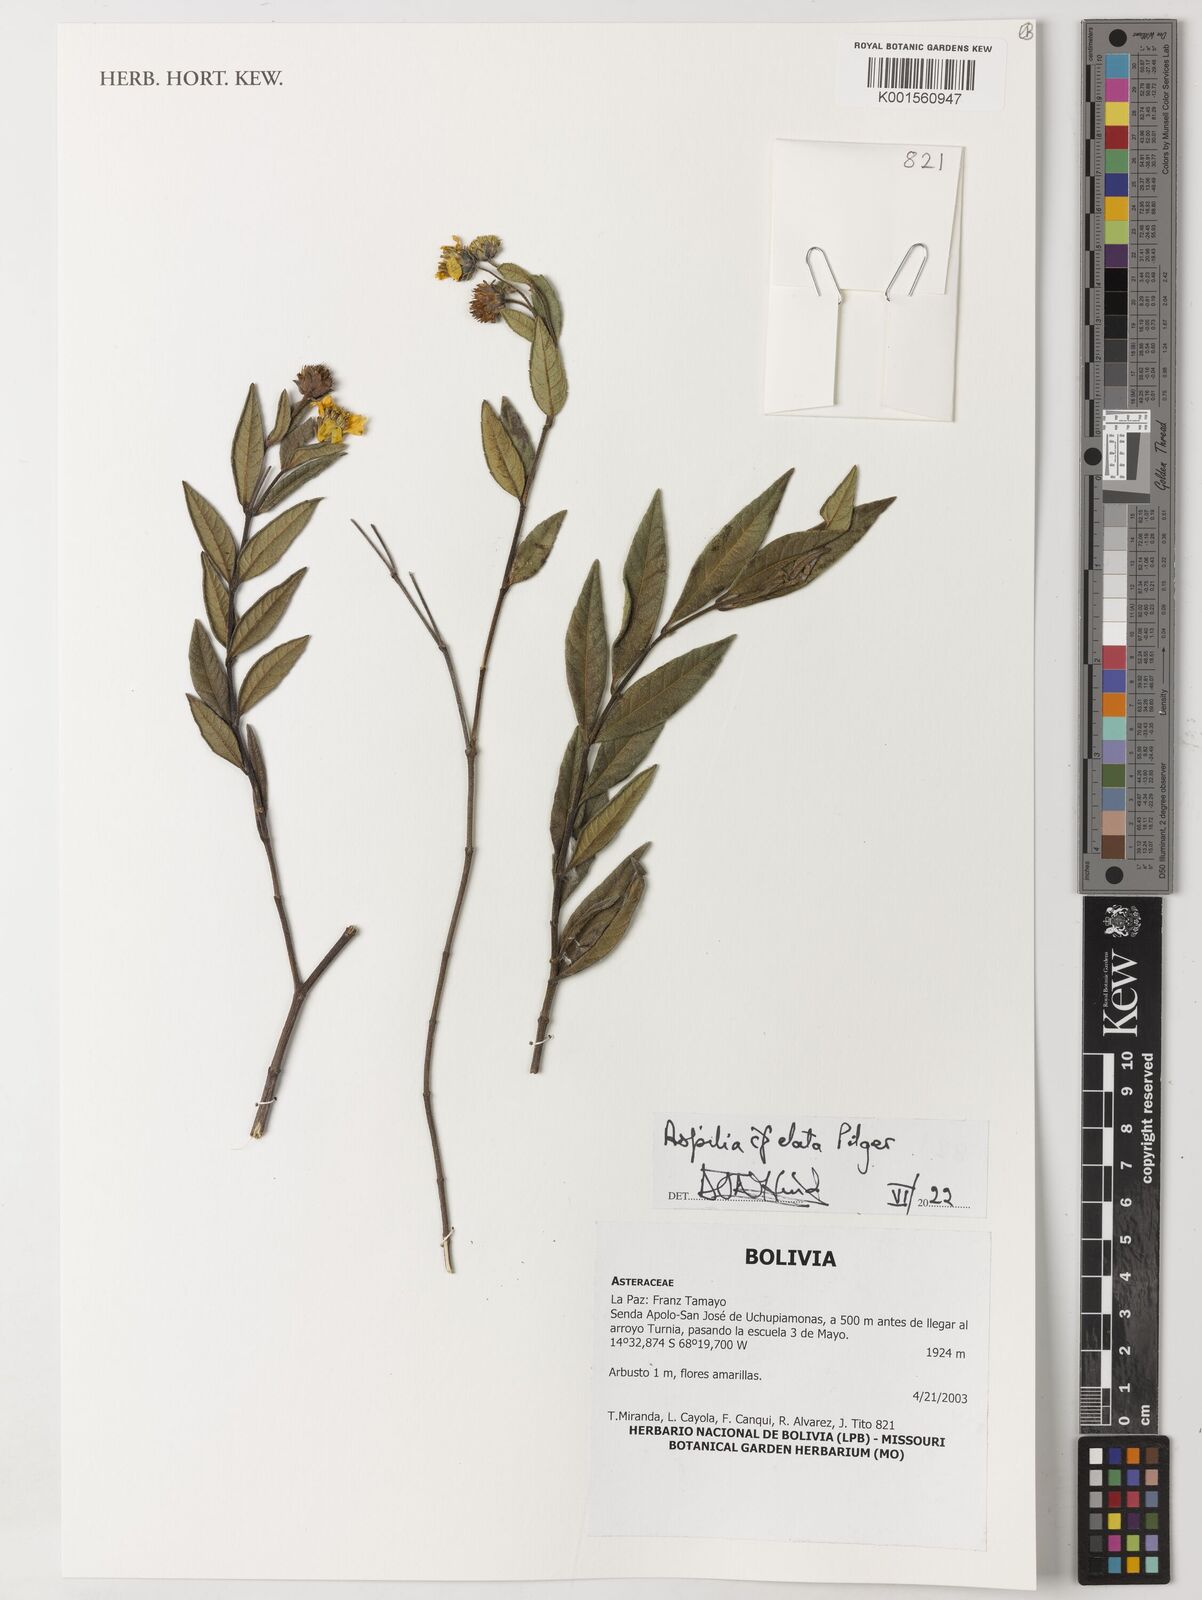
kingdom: Plantae
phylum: Tracheophyta
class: Magnoliopsida
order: Asterales
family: Asteraceae
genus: Wedelia
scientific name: Wedelia elata
